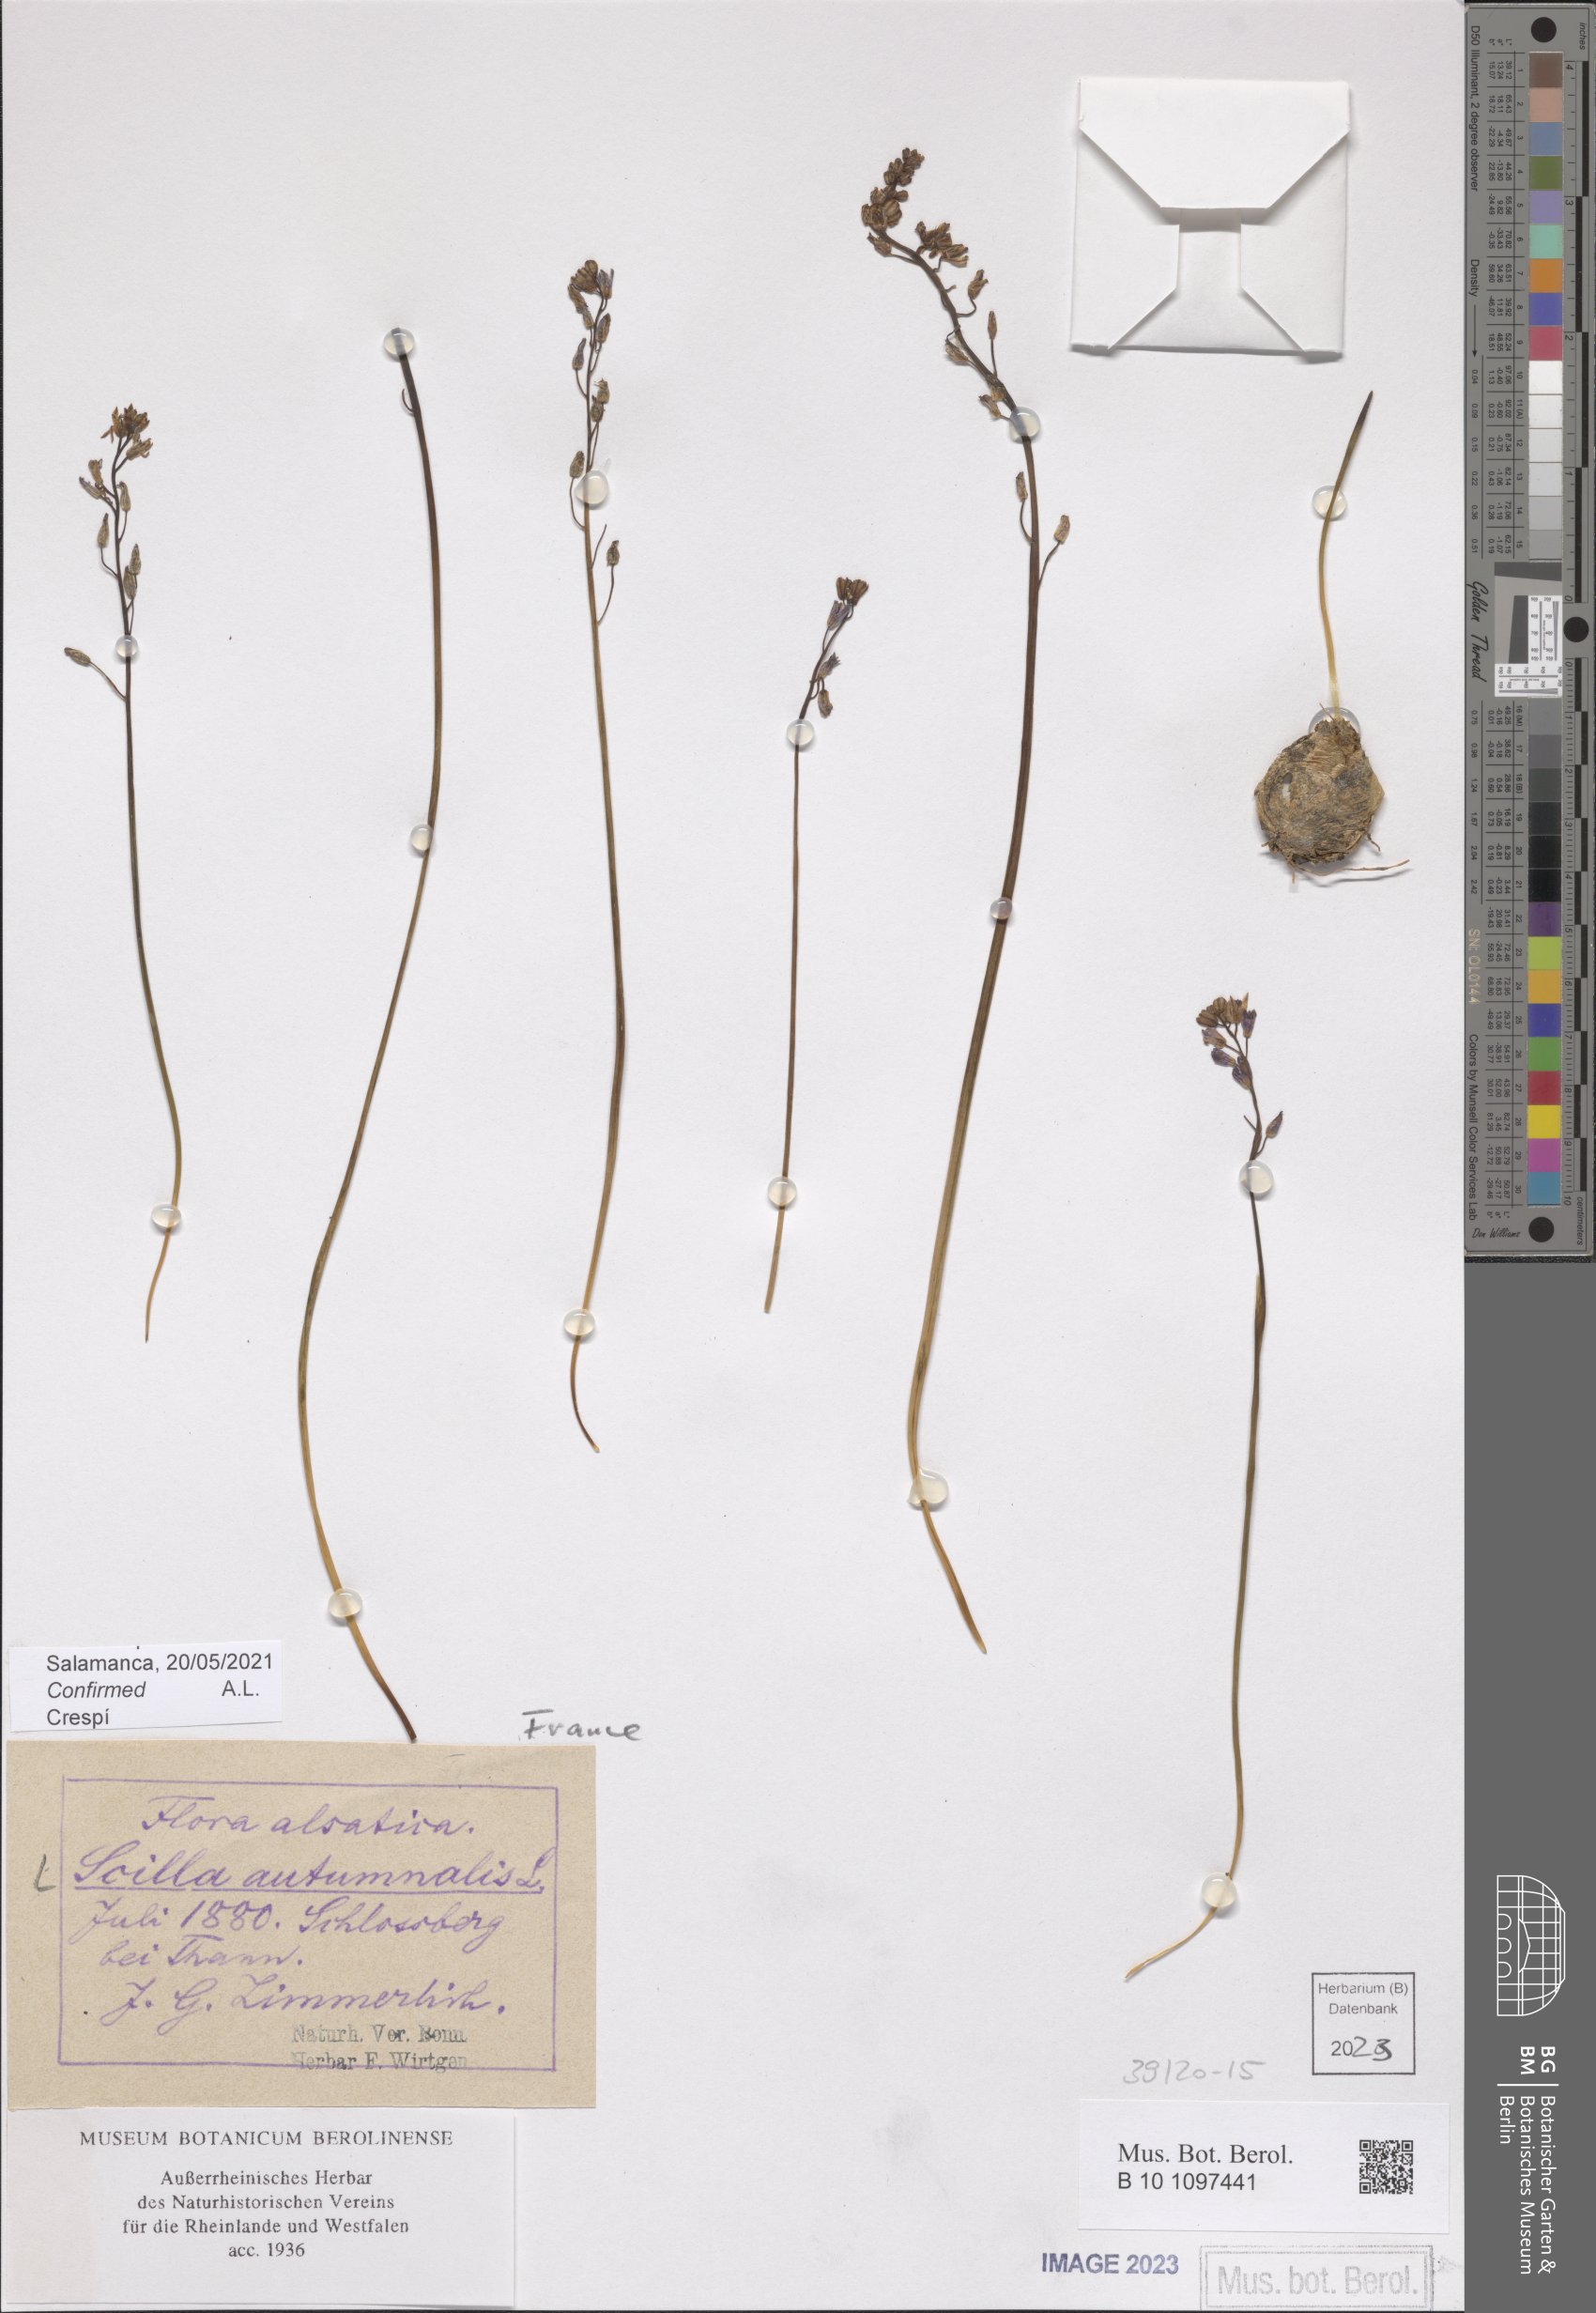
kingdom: Plantae
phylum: Tracheophyta
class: Liliopsida
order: Asparagales
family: Asparagaceae
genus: Prospero
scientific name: Prospero autumnale
